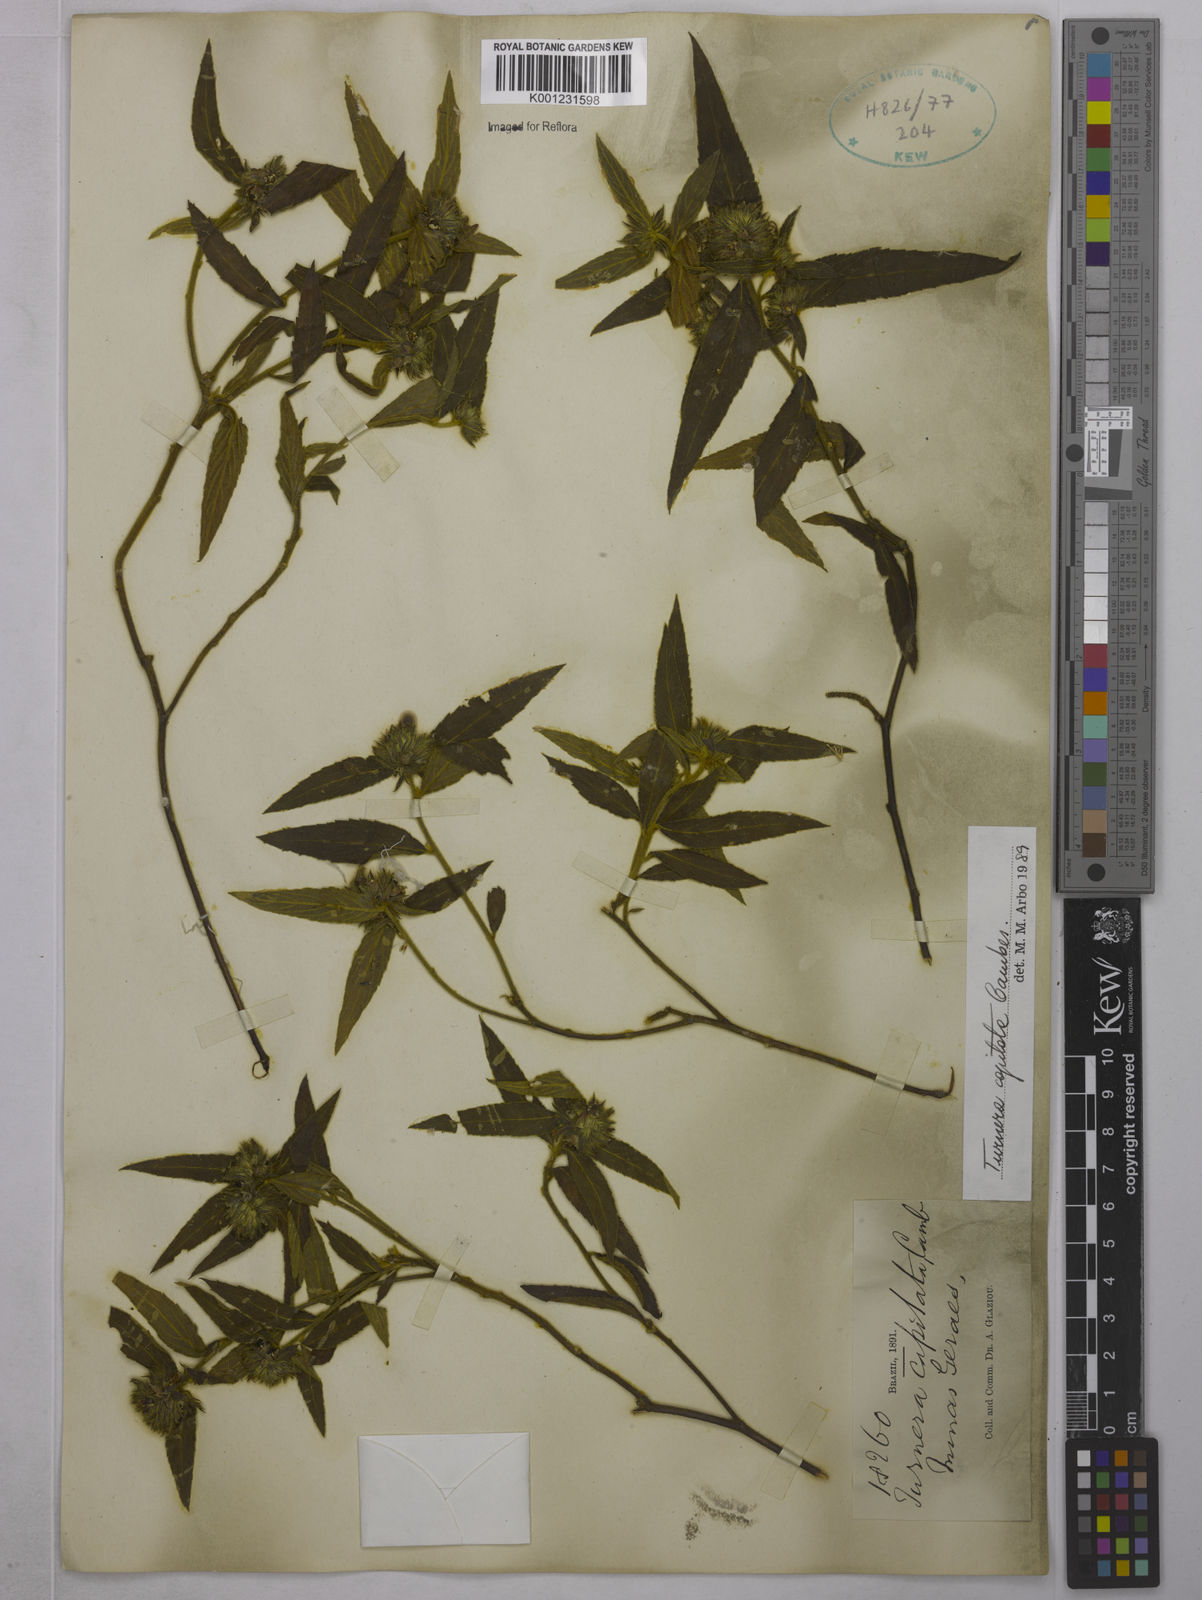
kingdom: Plantae
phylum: Tracheophyta
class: Magnoliopsida
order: Malpighiales
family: Turneraceae
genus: Oxossia
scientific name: Oxossia capitata
